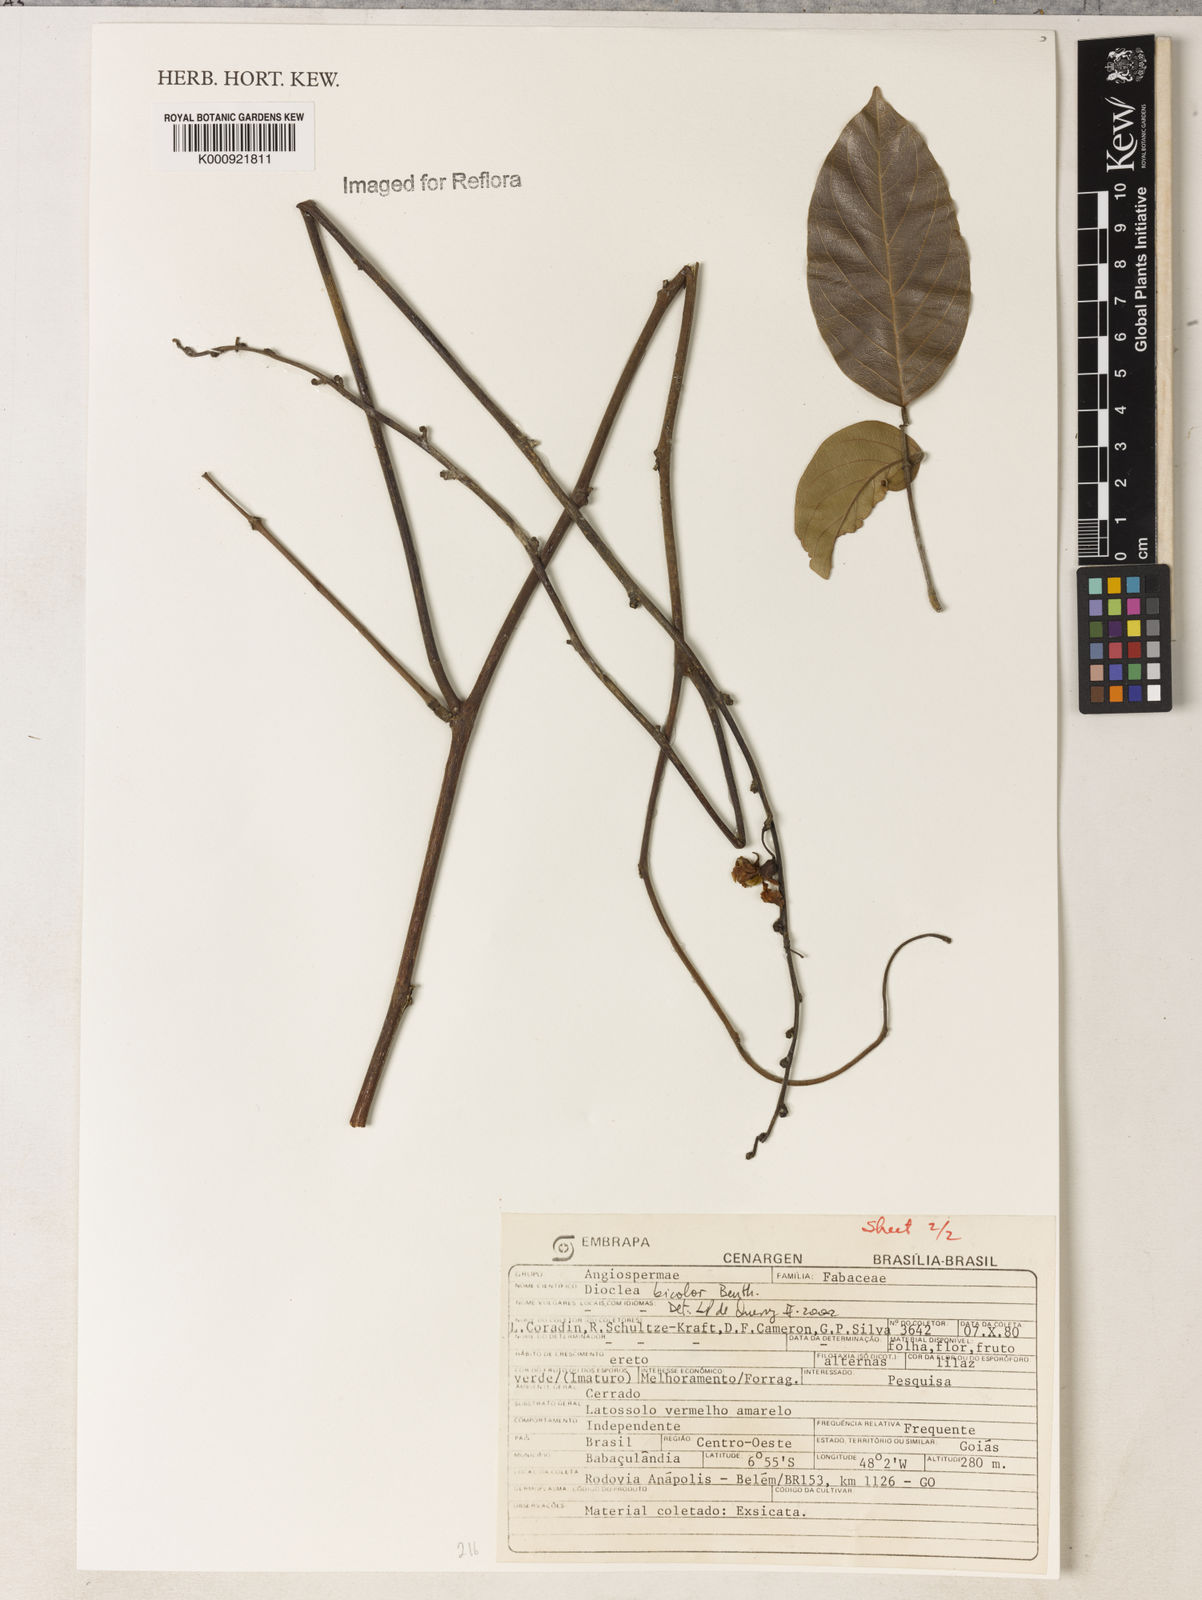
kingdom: Plantae
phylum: Tracheophyta
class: Magnoliopsida
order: Fabales
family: Fabaceae
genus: Macropsychanthus
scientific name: Macropsychanthus bicolor
